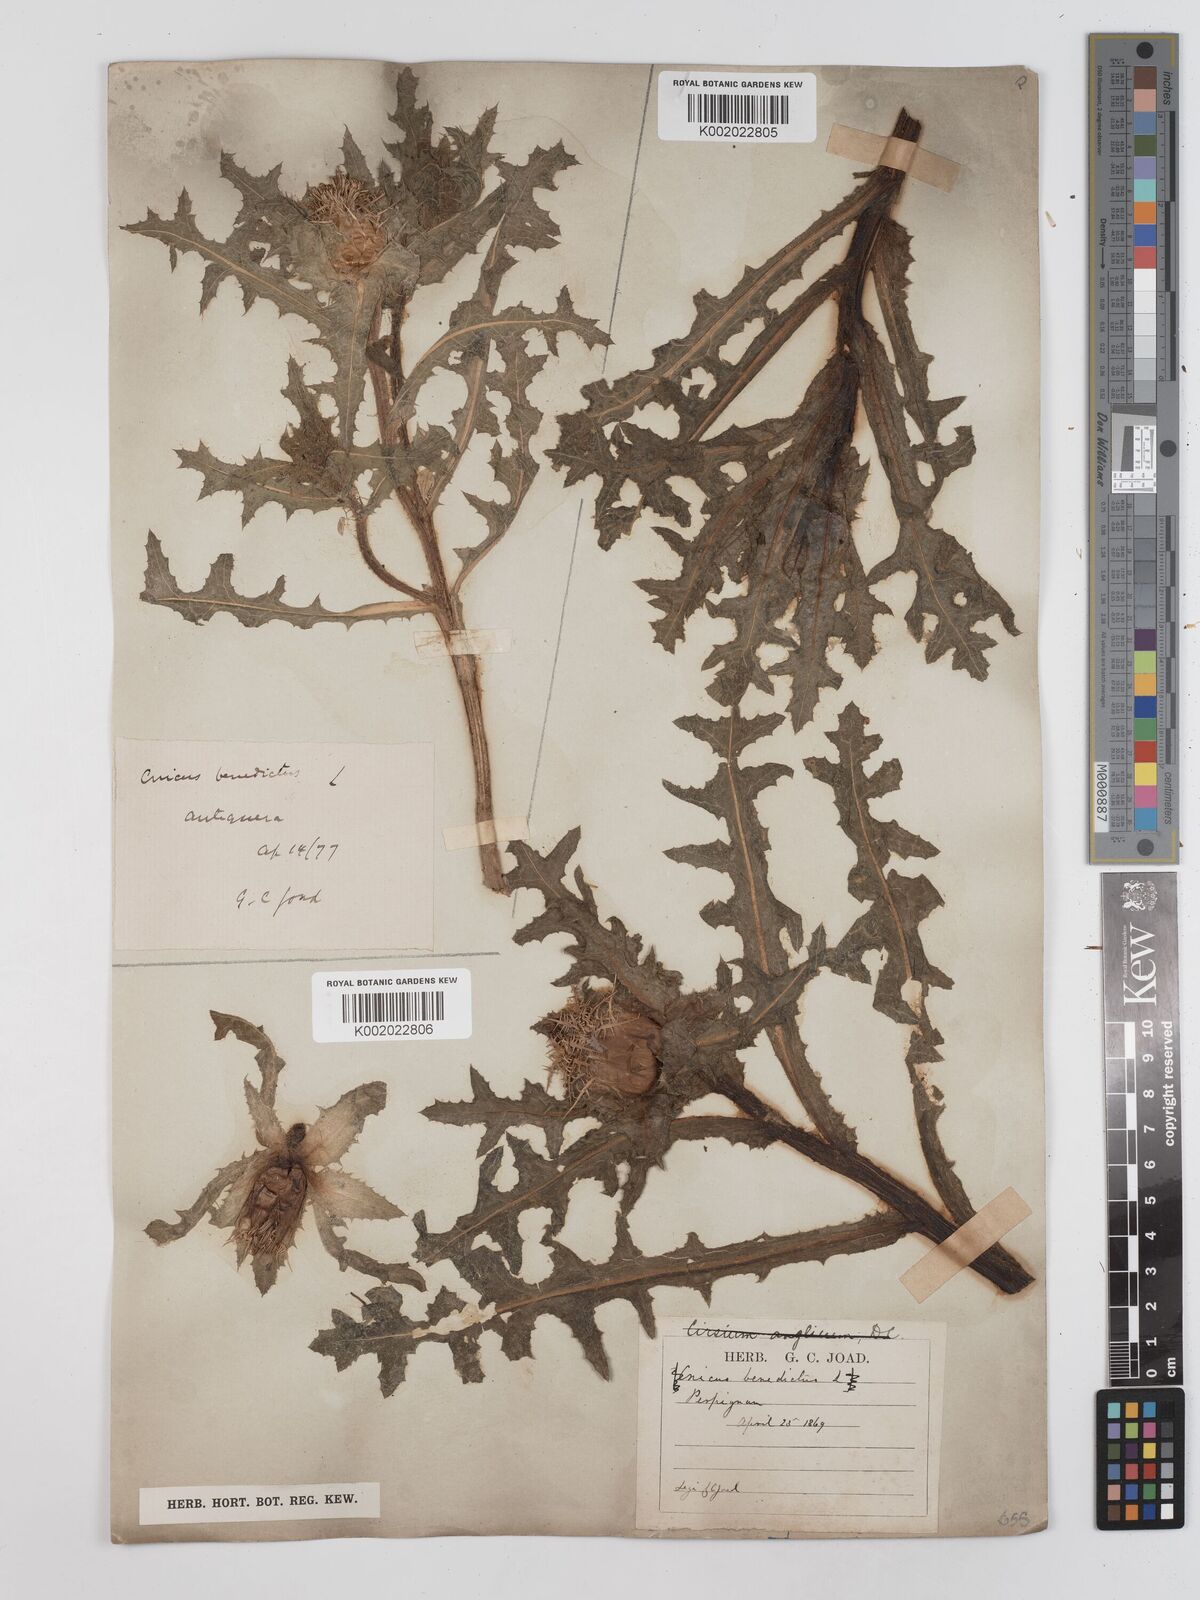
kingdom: Plantae
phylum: Tracheophyta
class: Magnoliopsida
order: Asterales
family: Asteraceae
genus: Centaurea
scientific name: Centaurea benedicta
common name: Blessed thistle
